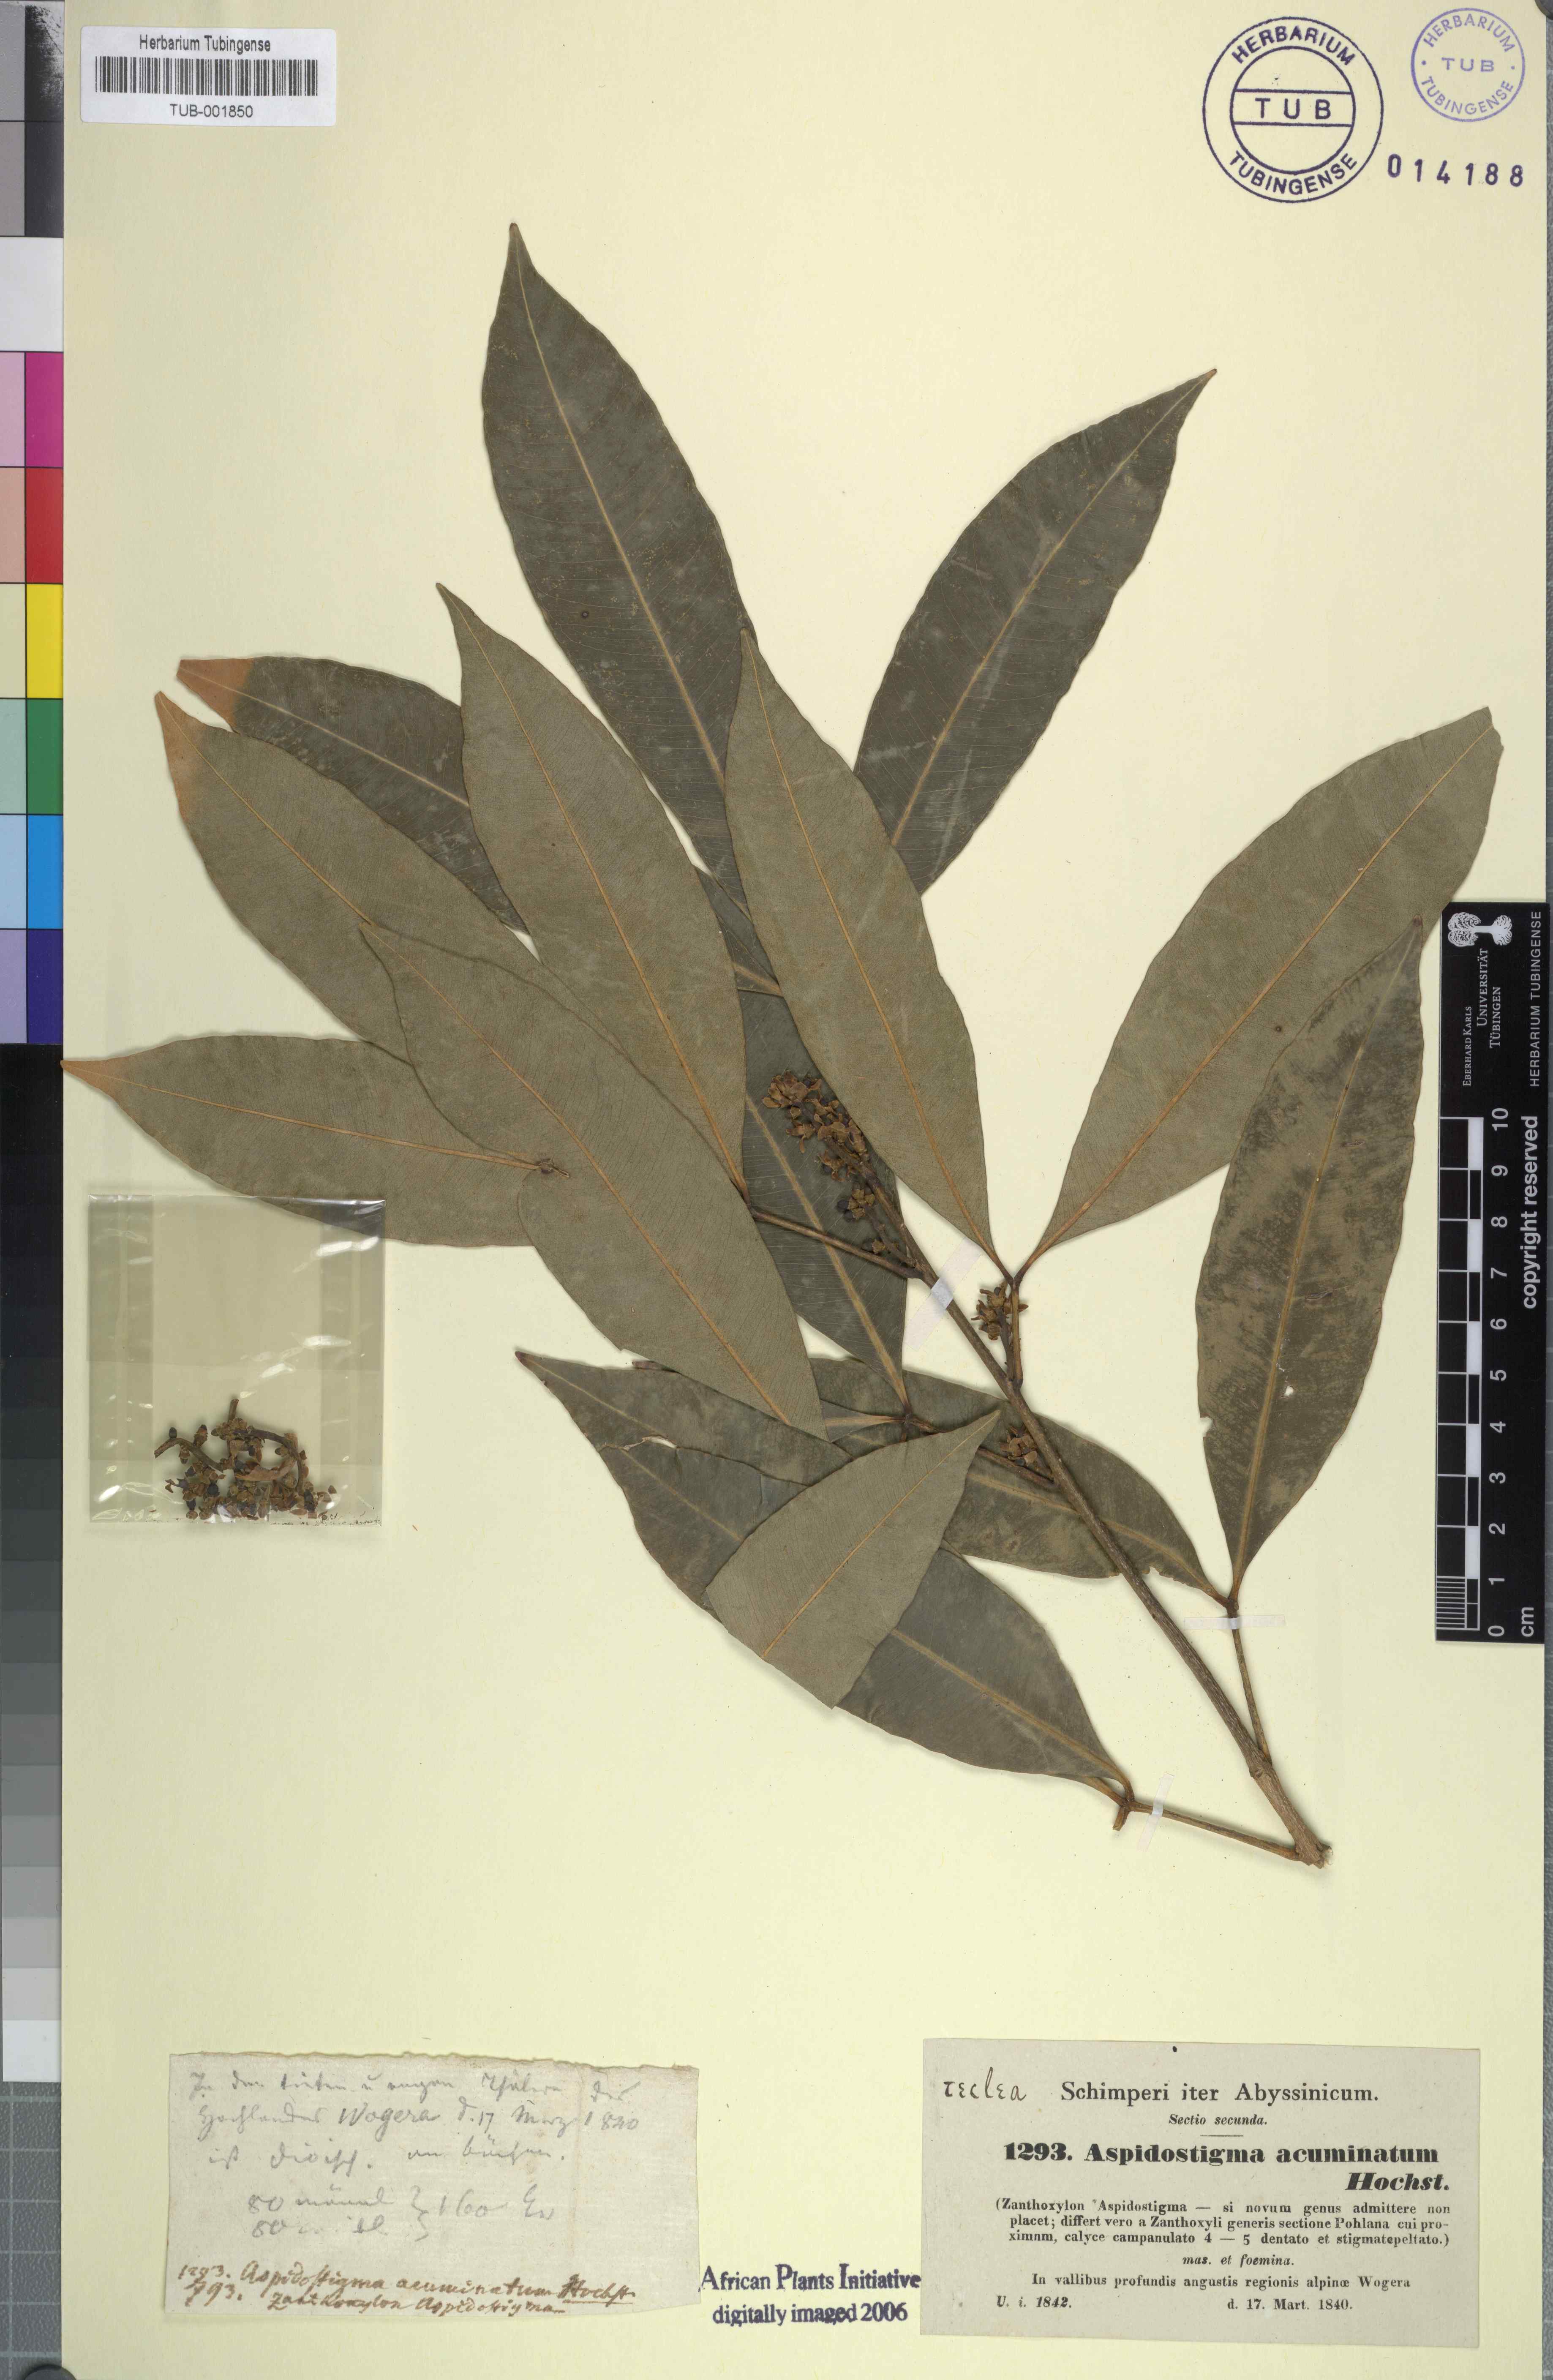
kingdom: Plantae
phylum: Tracheophyta
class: Magnoliopsida
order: Sapindales
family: Rutaceae
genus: Vepris
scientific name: Vepris nobilis
